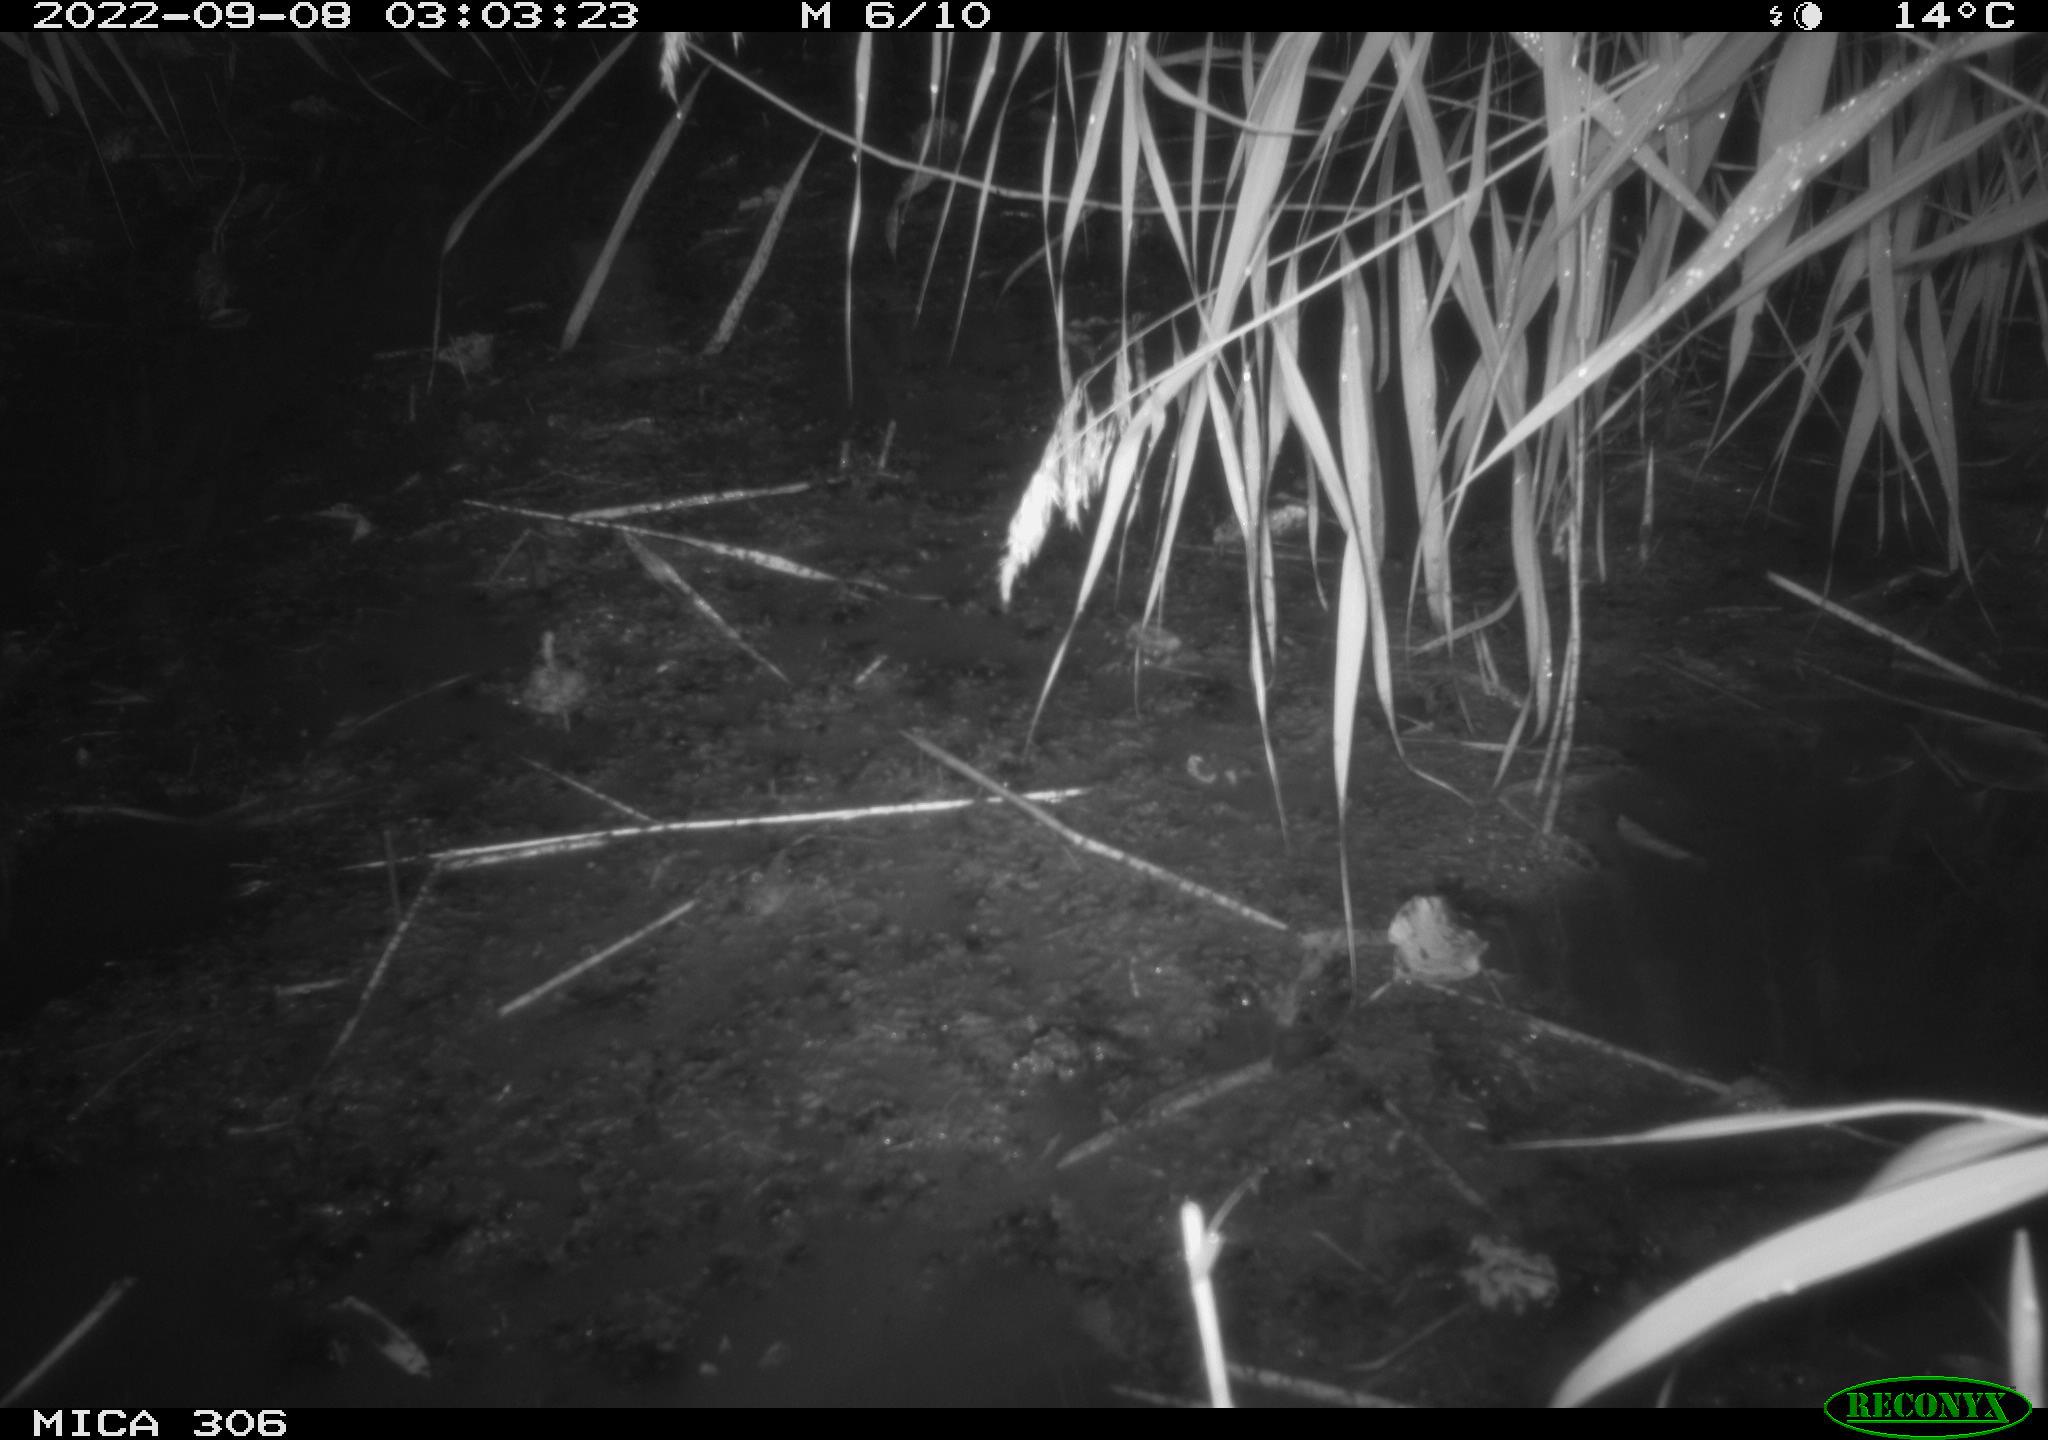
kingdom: Animalia
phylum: Chordata
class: Mammalia
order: Rodentia
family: Muridae
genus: Rattus
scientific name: Rattus norvegicus
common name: Brown rat
